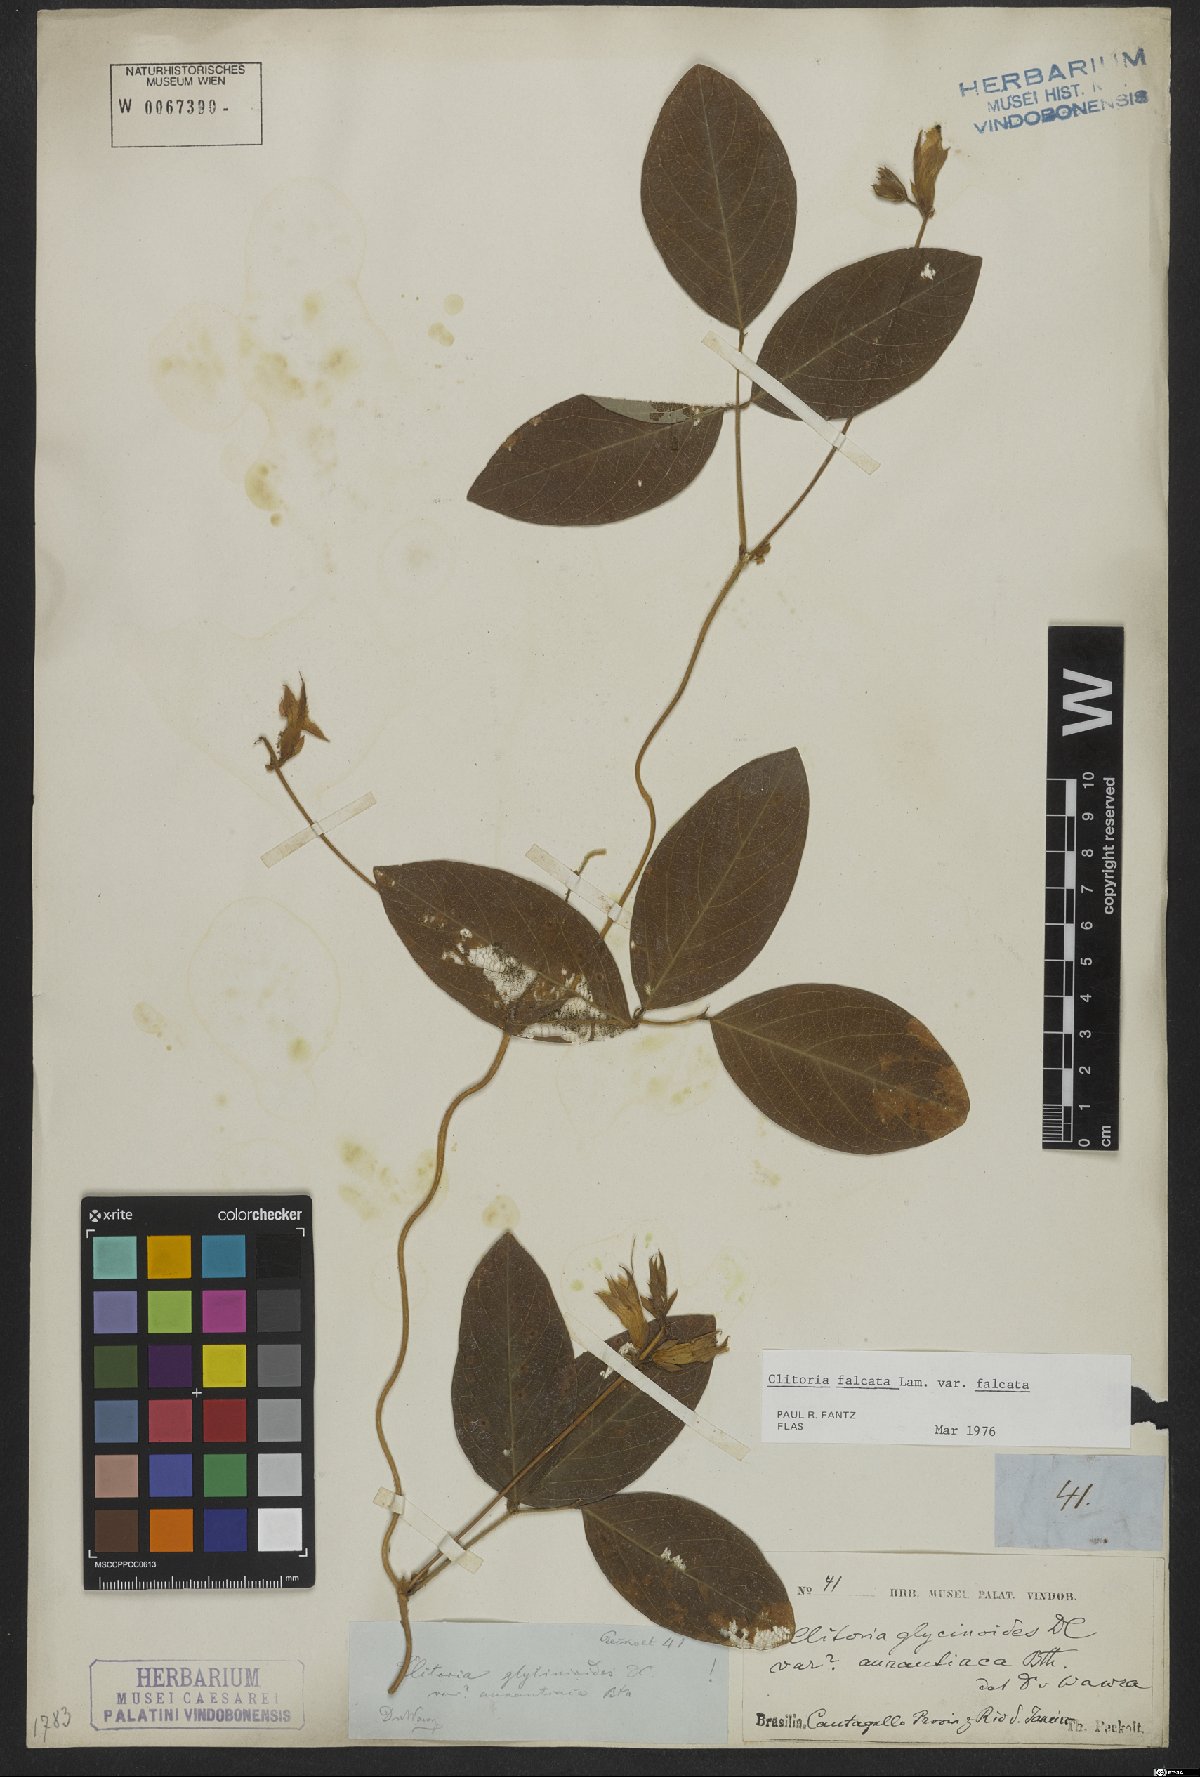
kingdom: Plantae
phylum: Tracheophyta
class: Magnoliopsida
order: Fabales
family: Fabaceae
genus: Clitoria
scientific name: Clitoria falcata
